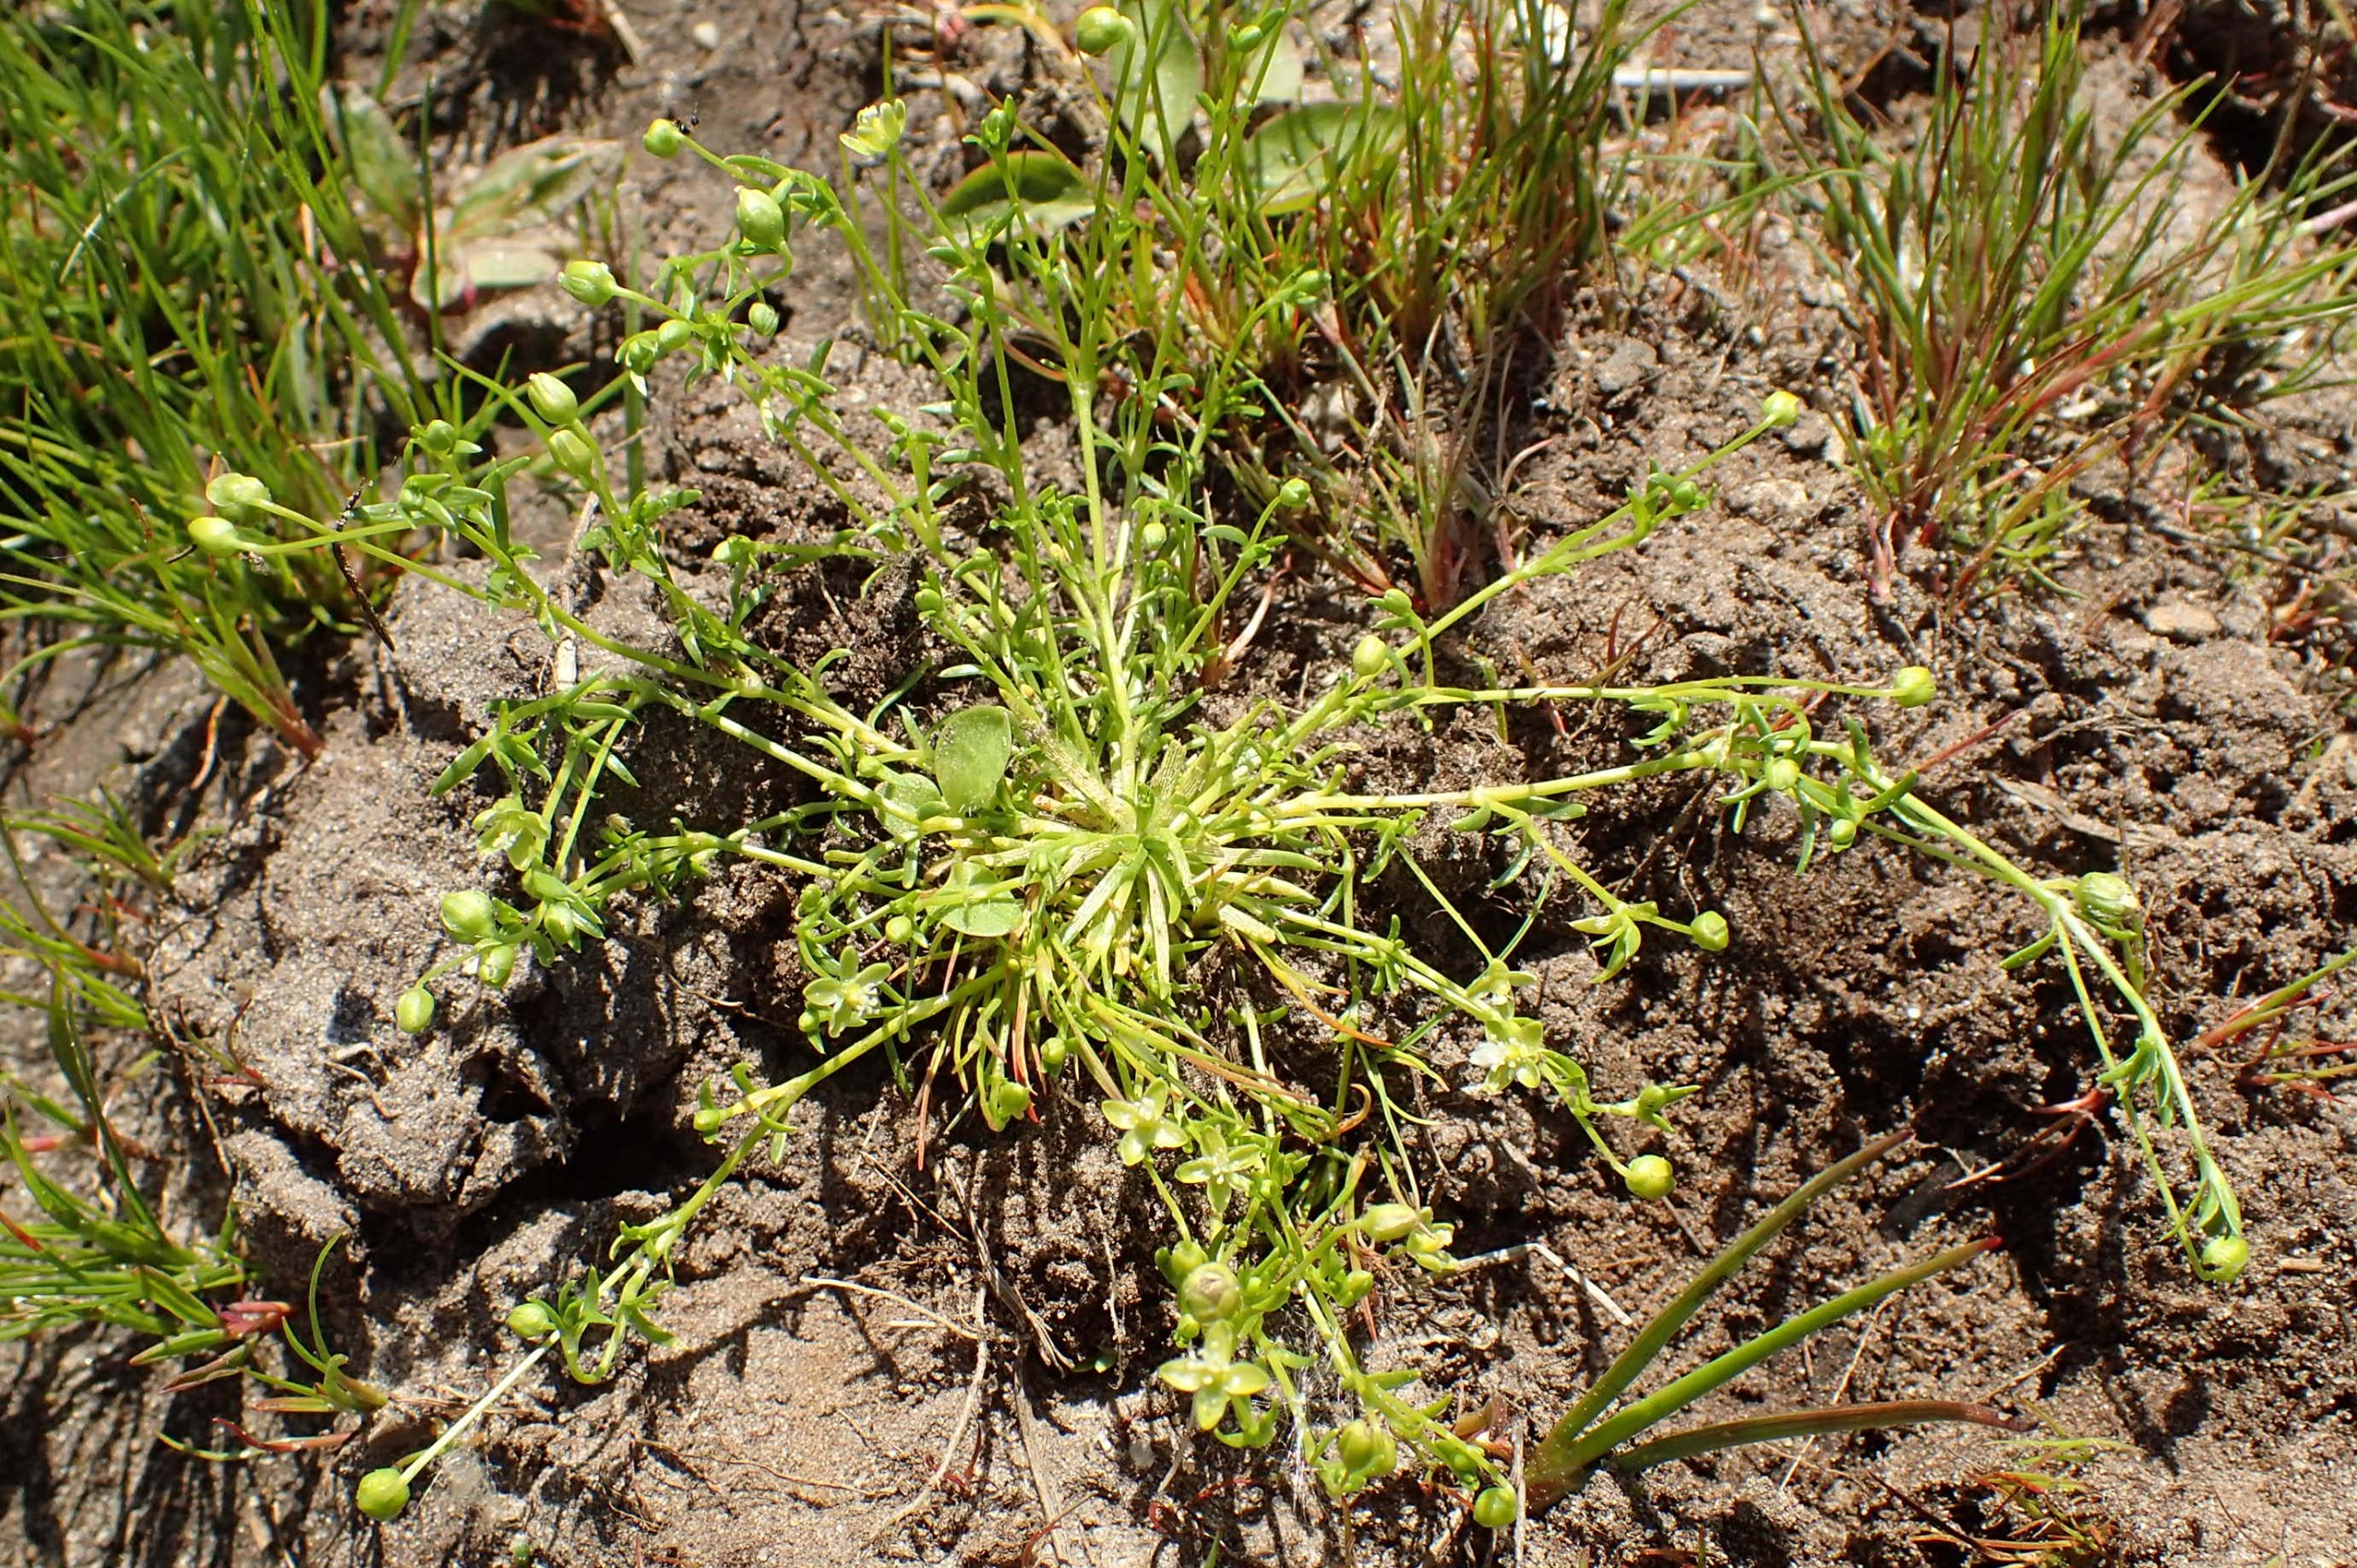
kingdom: Plantae
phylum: Tracheophyta
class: Magnoliopsida
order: Caryophyllales
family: Caryophyllaceae
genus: Sagina
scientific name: Sagina procumbens
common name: Almindelig firling
